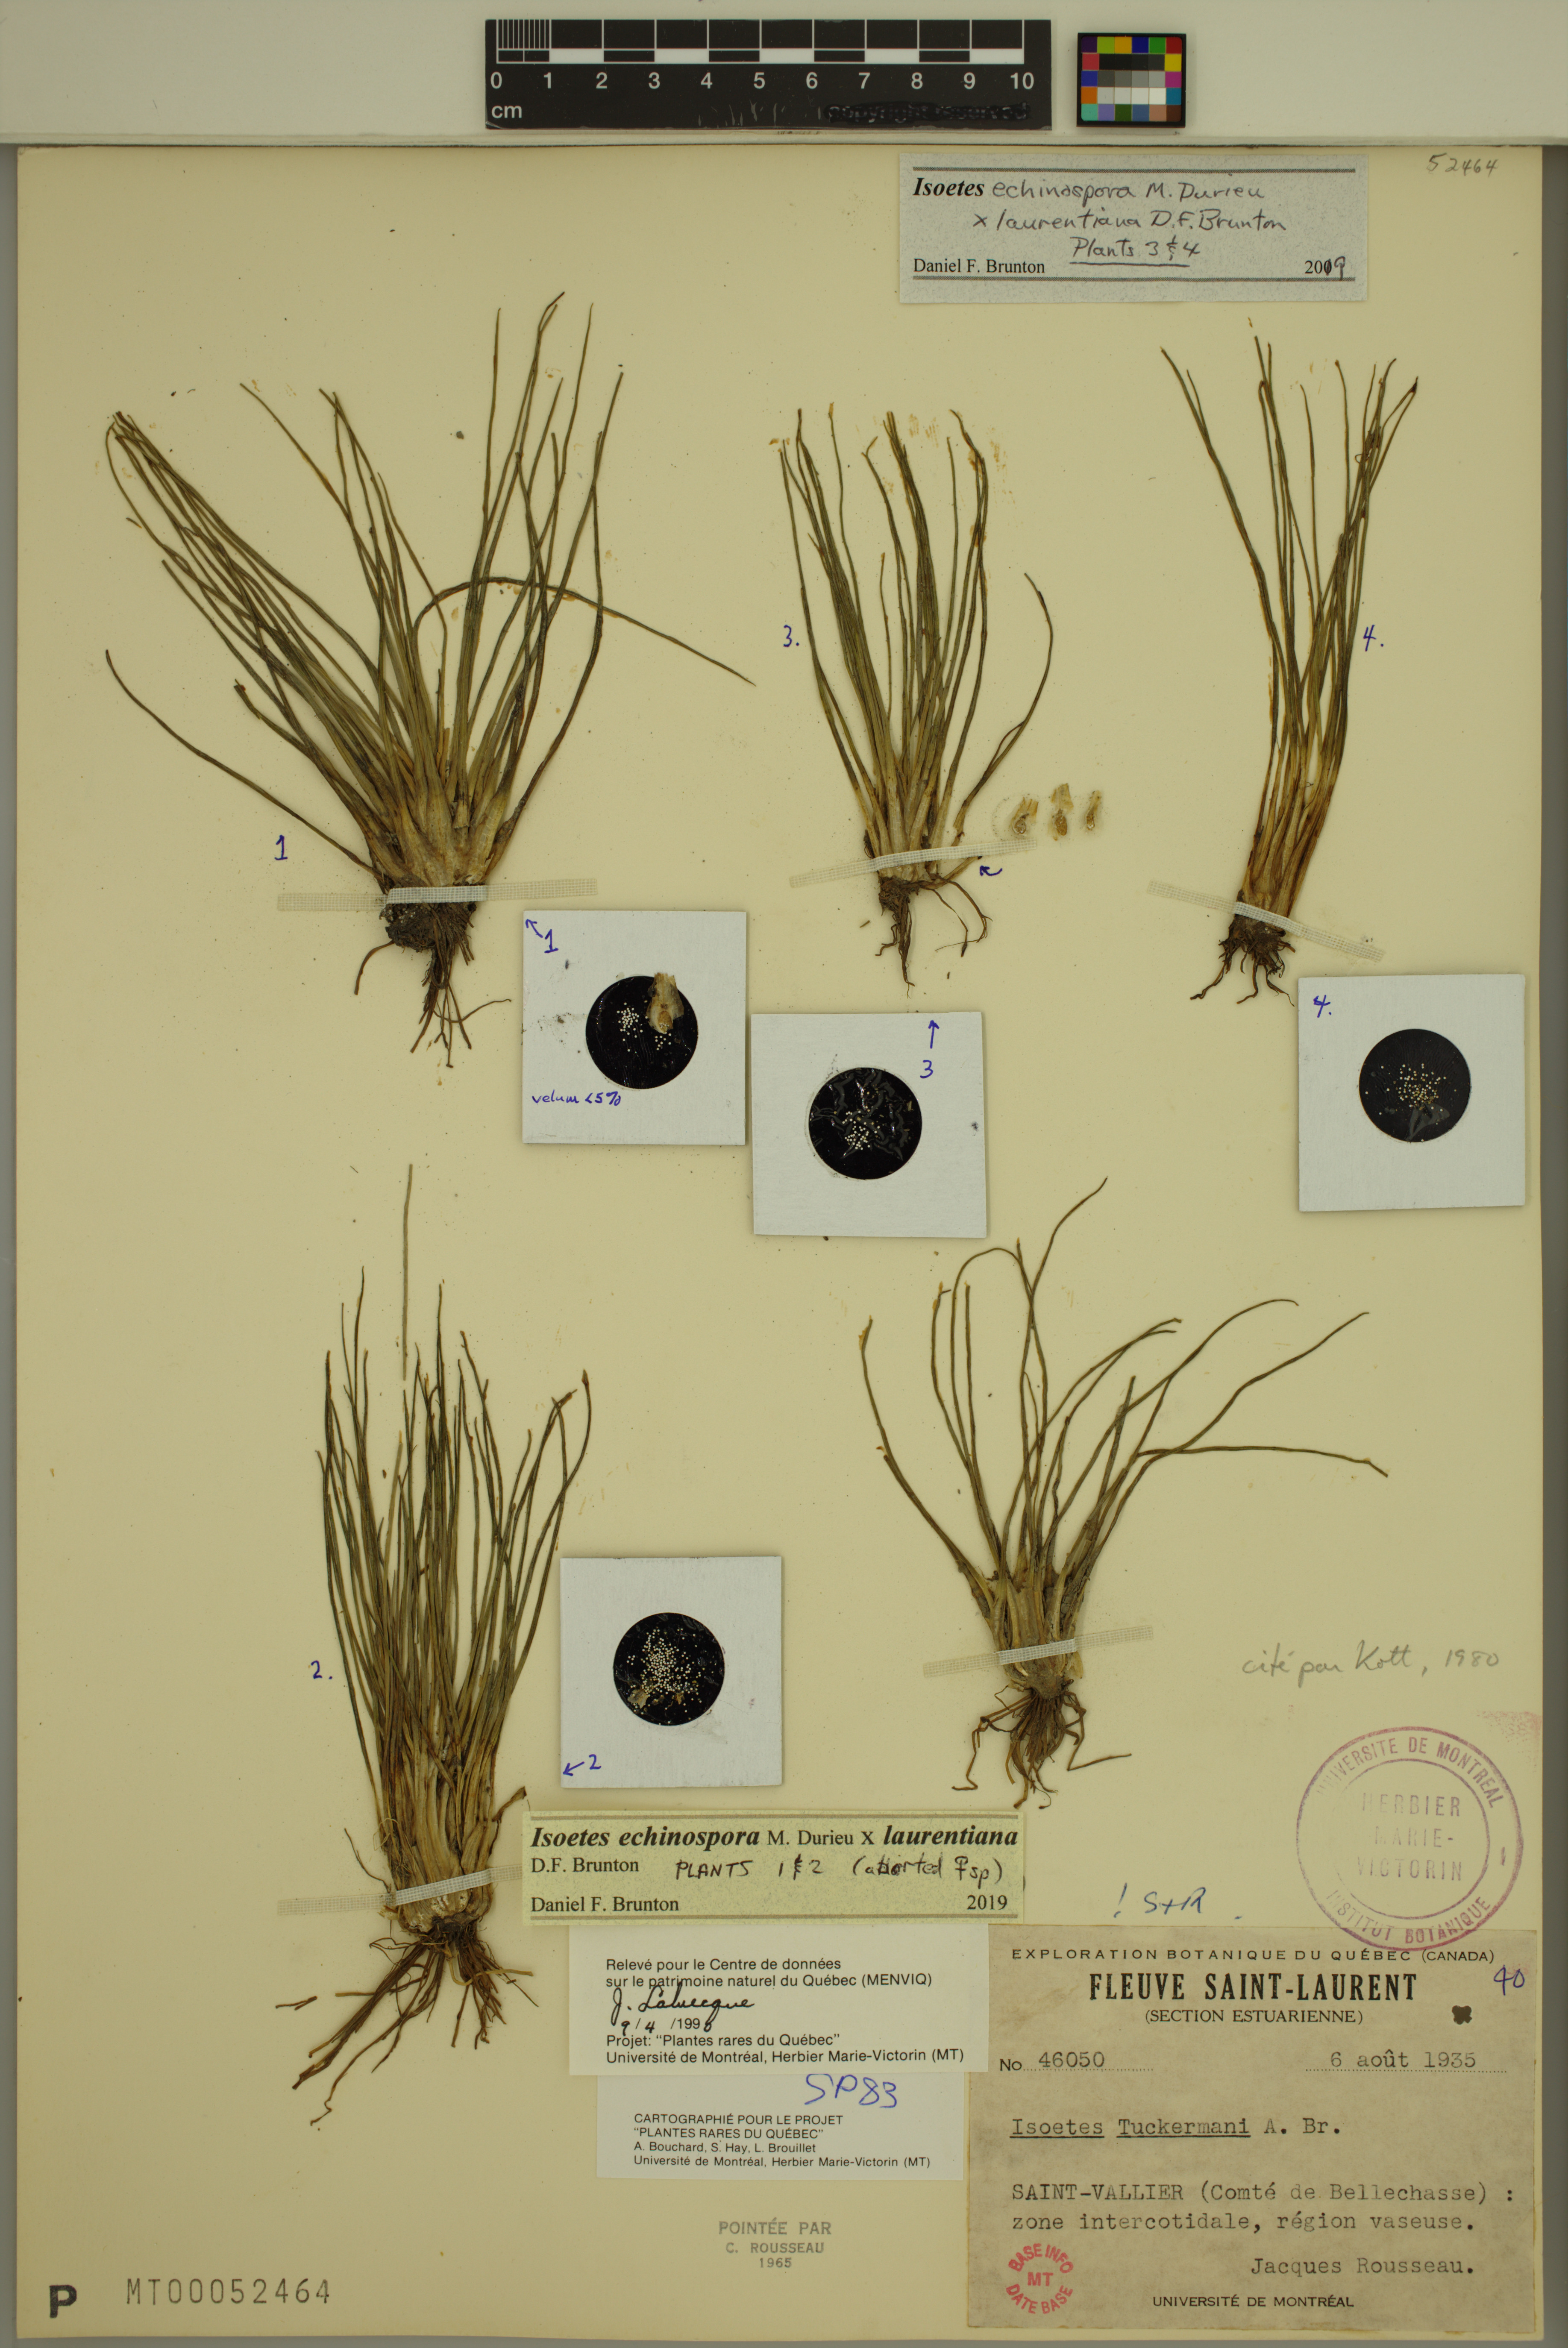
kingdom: Plantae
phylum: Tracheophyta
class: Lycopodiopsida
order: Isoetales
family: Isoetaceae
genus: Isoetes
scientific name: Isoetes echinospora
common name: Spring quillwort
